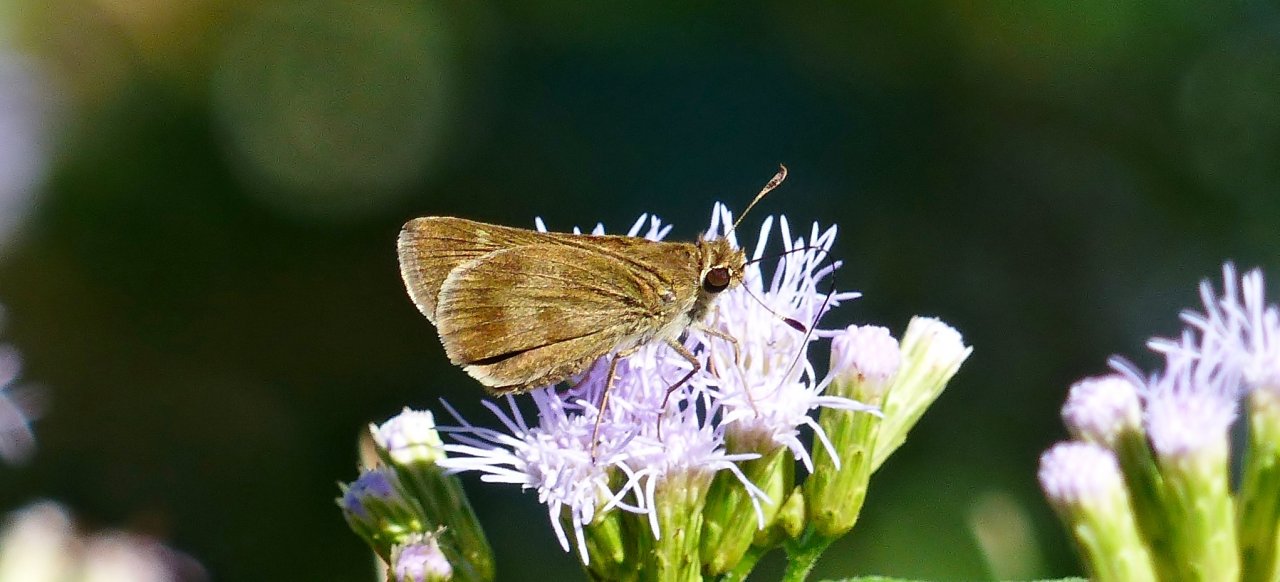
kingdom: Animalia
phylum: Arthropoda
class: Insecta
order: Lepidoptera
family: Hesperiidae
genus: Polites
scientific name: Polites vibex
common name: Whirlabout
